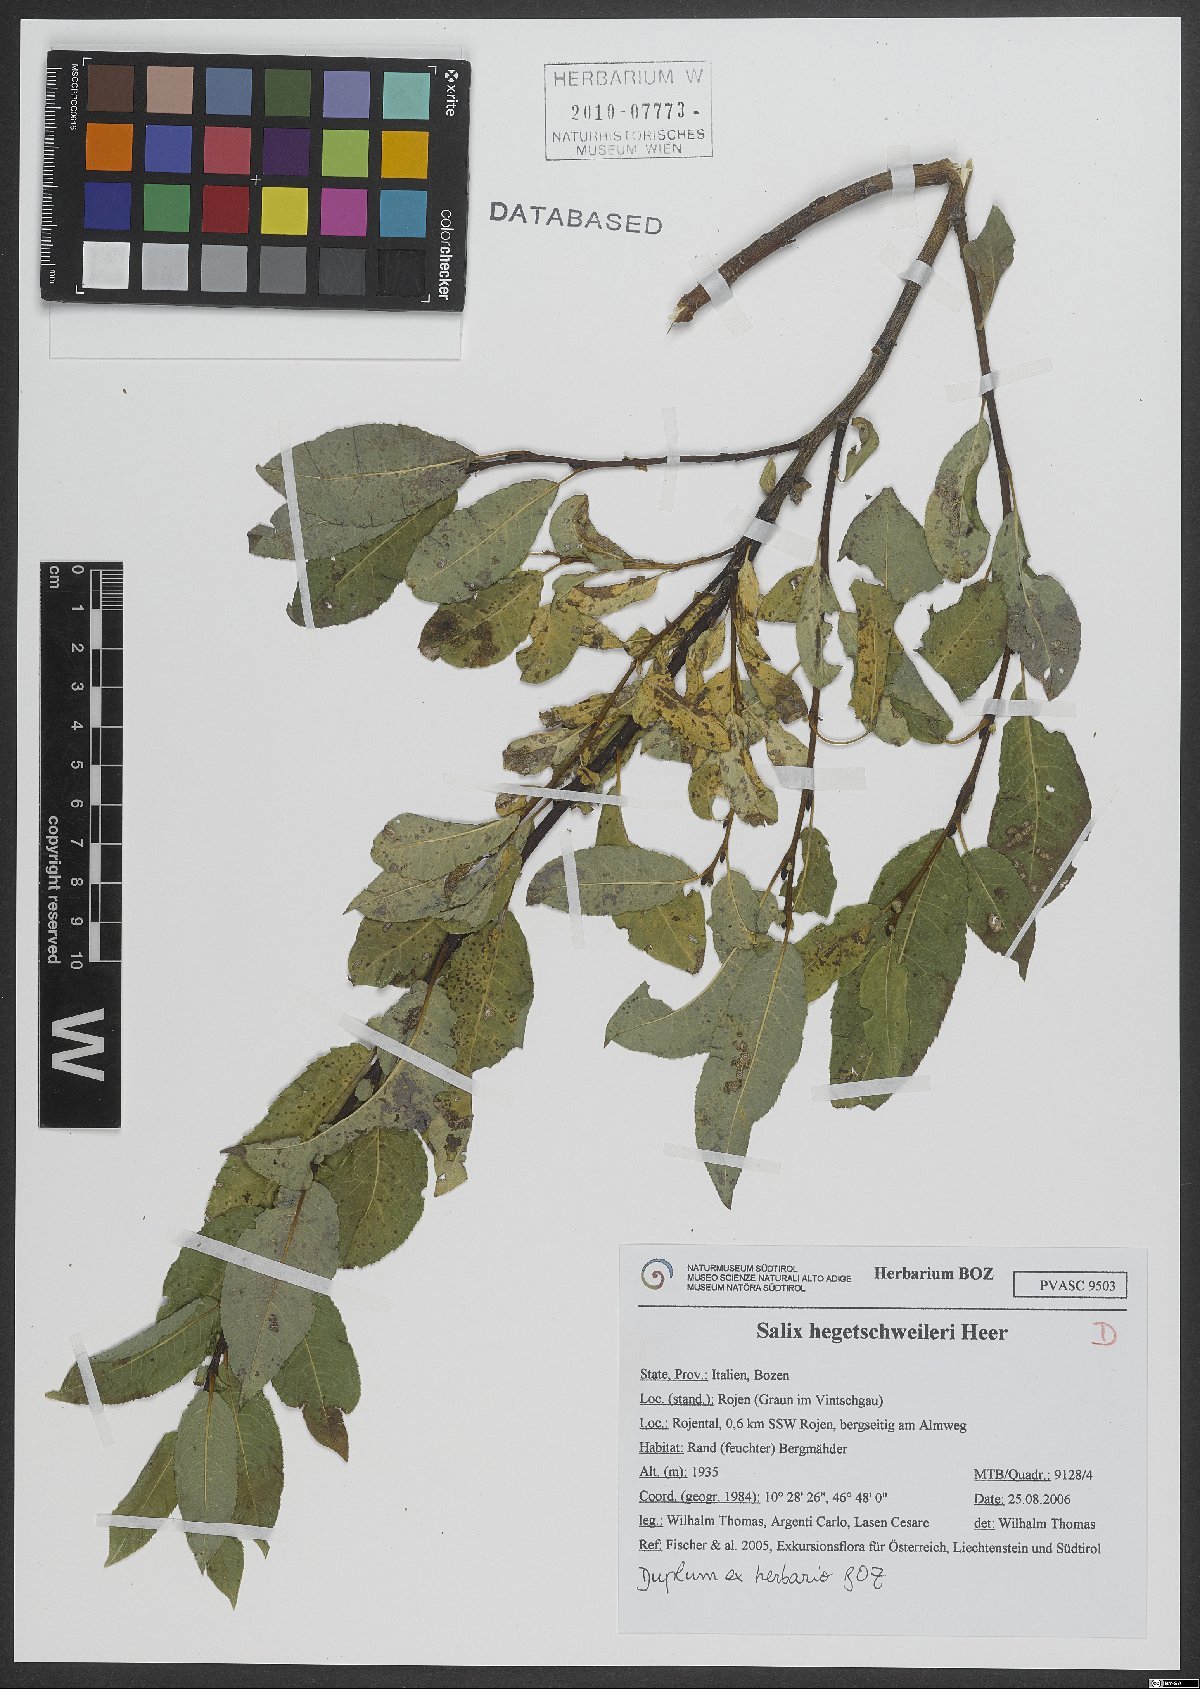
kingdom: Plantae
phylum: Tracheophyta
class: Magnoliopsida
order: Malpighiales
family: Salicaceae
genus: Salix
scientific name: Salix hegetschweileri
